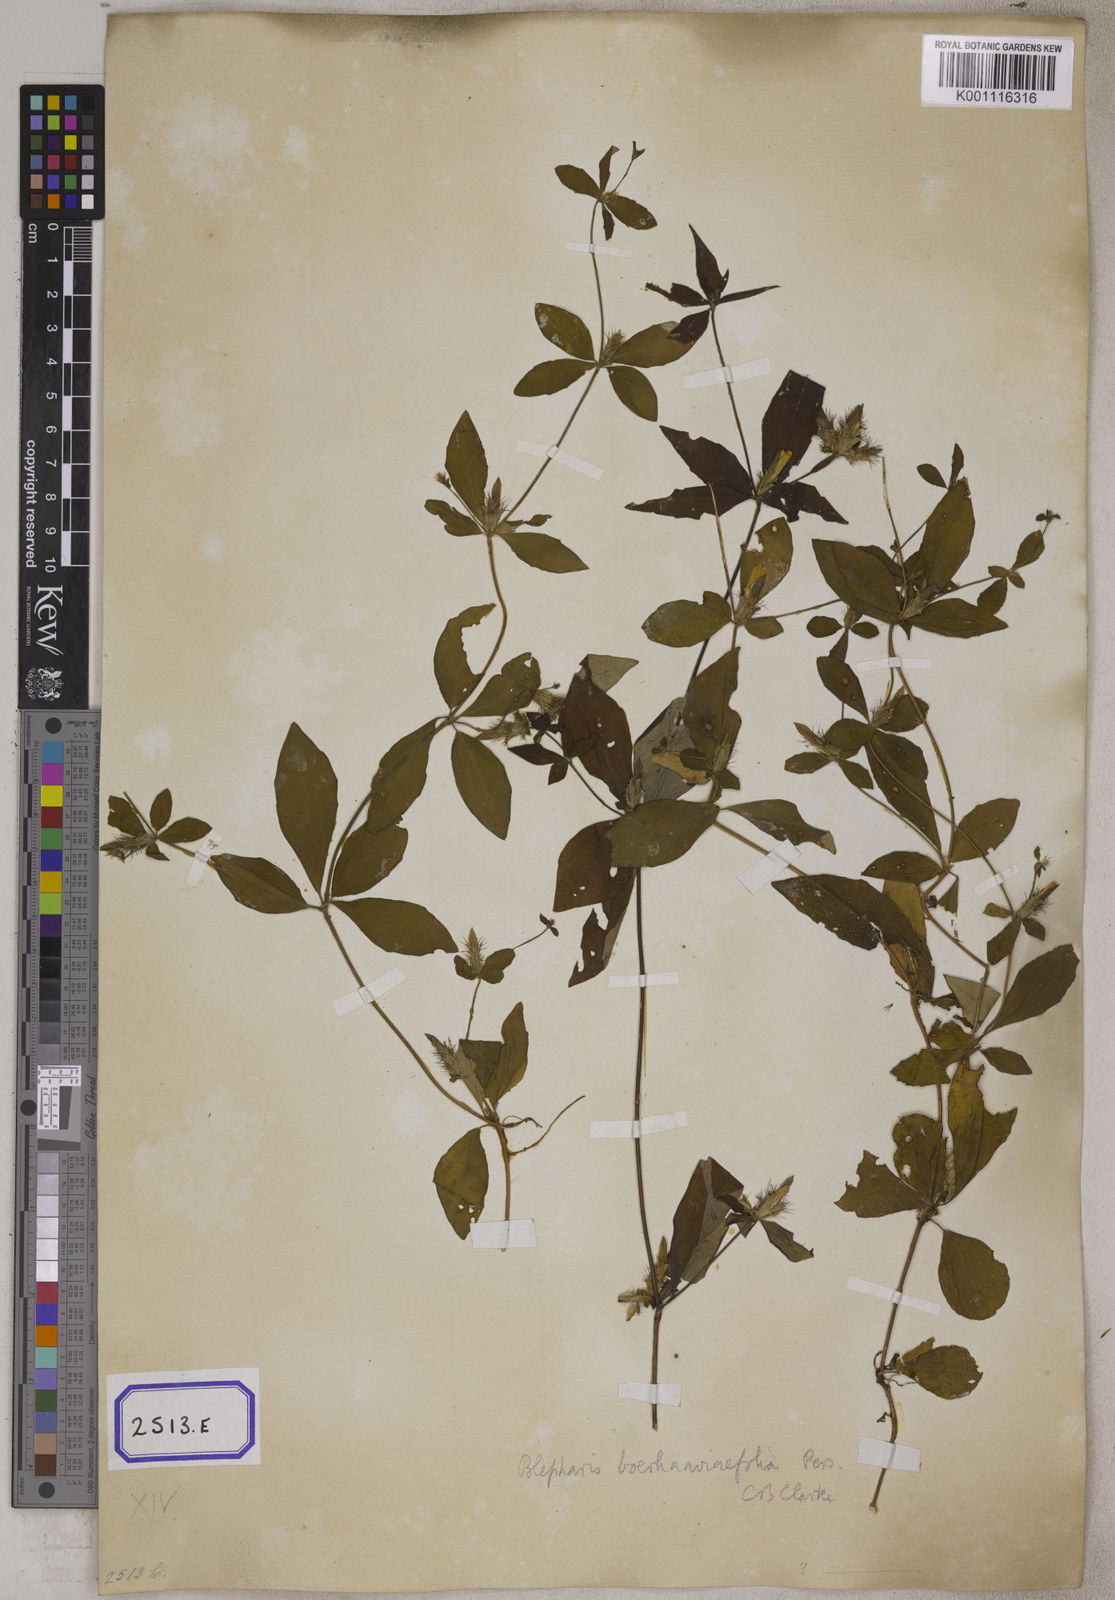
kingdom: Plantae
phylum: Tracheophyta
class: Magnoliopsida
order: Lamiales
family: Acanthaceae
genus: Blepharis
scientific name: Blepharis
